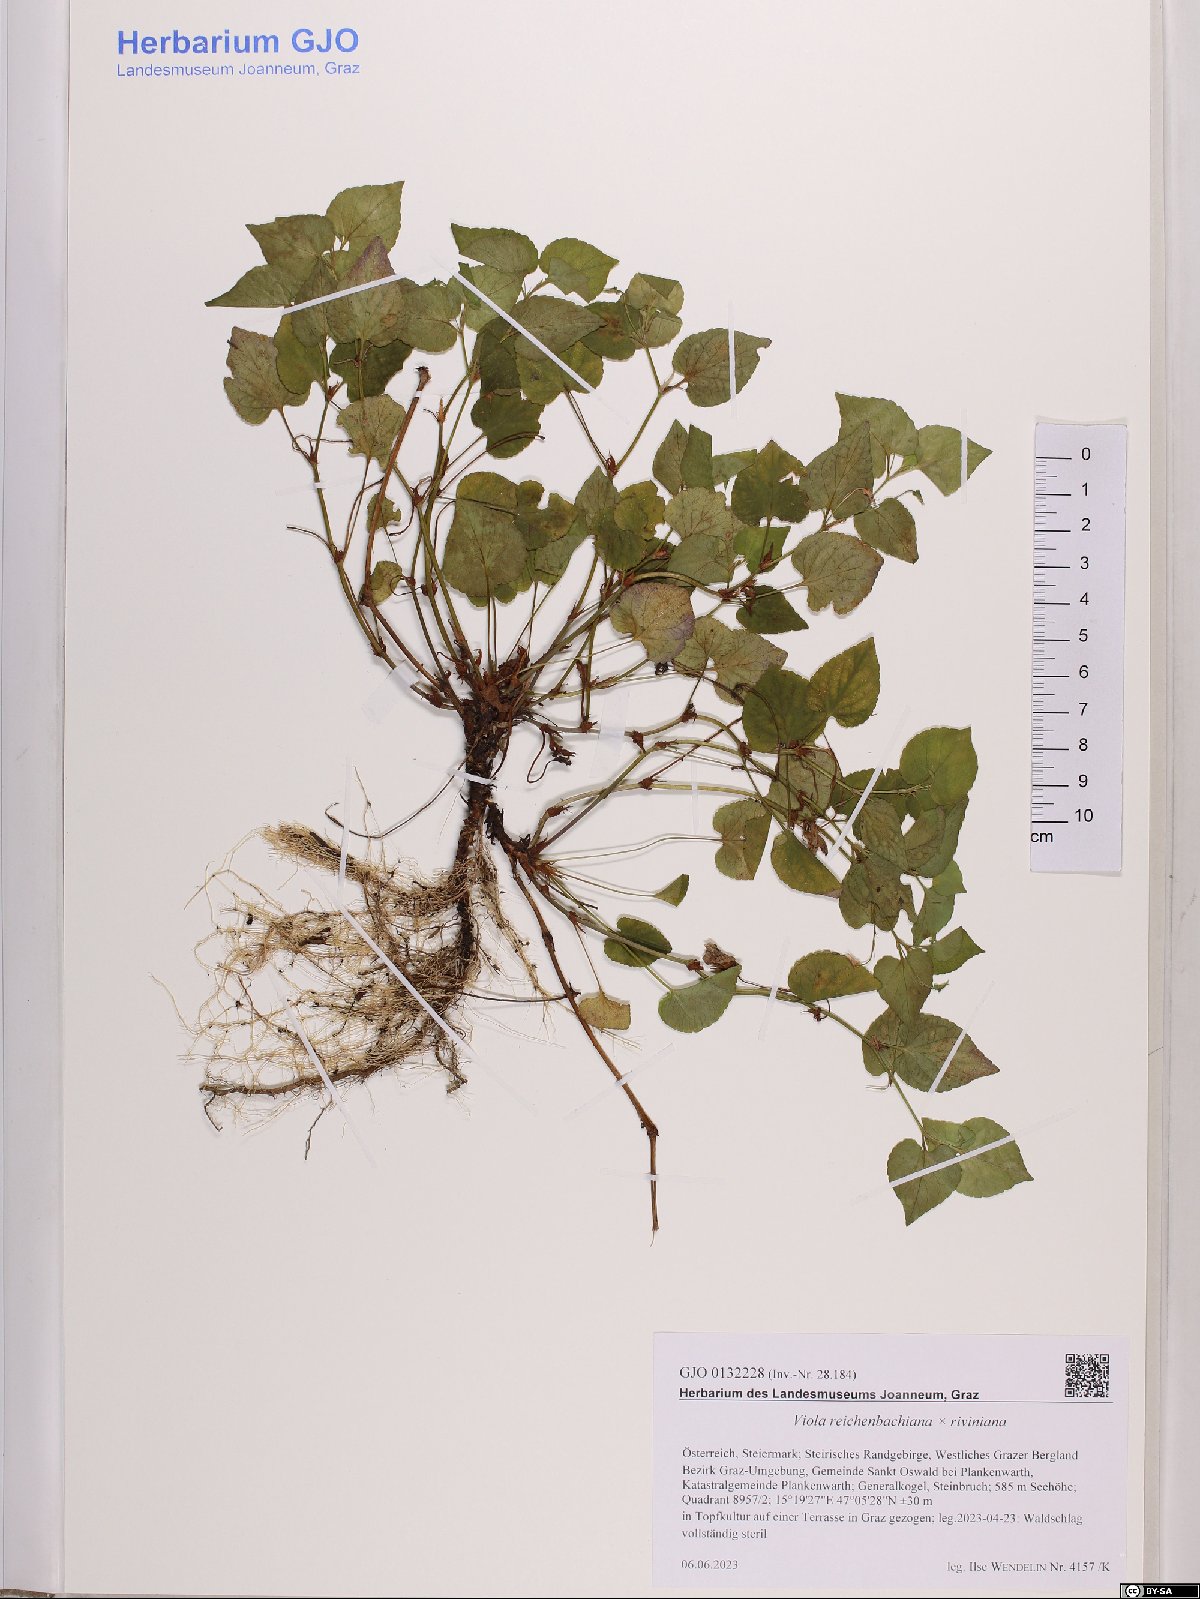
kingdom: Plantae
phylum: Tracheophyta
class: Magnoliopsida
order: Malpighiales
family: Violaceae
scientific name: Violaceae
